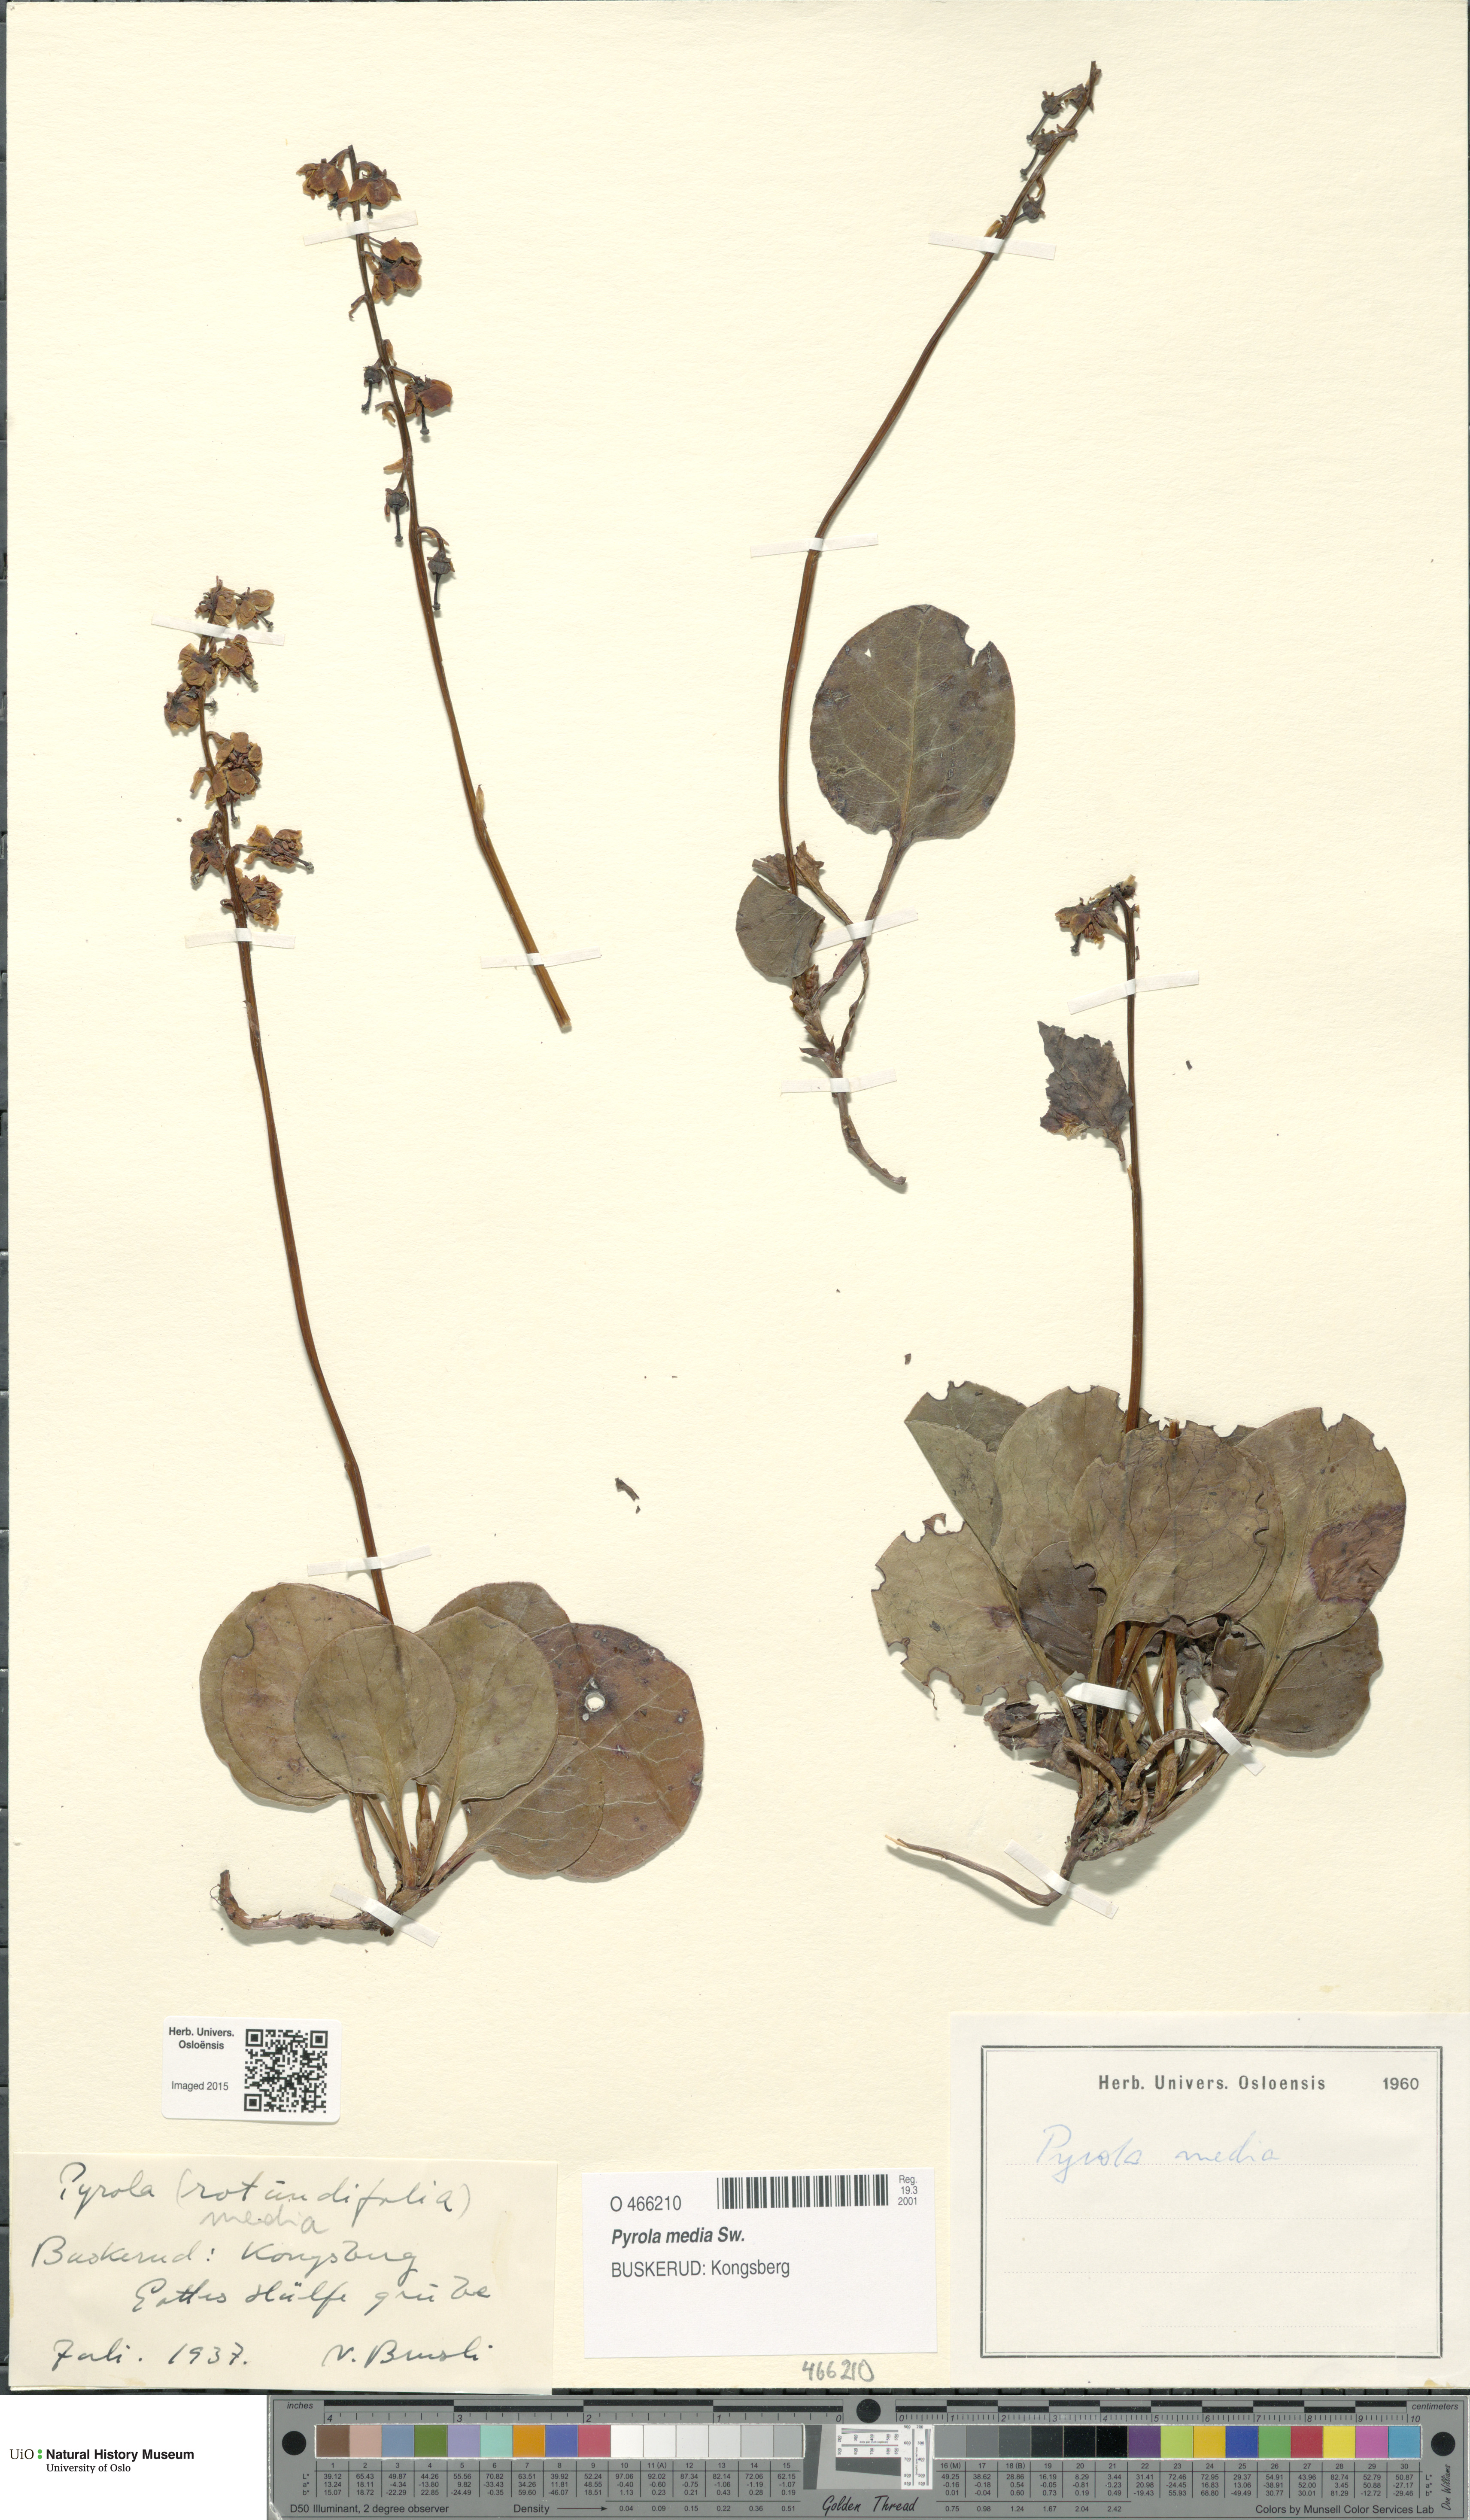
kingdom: Plantae
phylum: Tracheophyta
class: Magnoliopsida
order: Ericales
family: Ericaceae
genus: Pyrola
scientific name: Pyrola media
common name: Intermediate wintergreen
